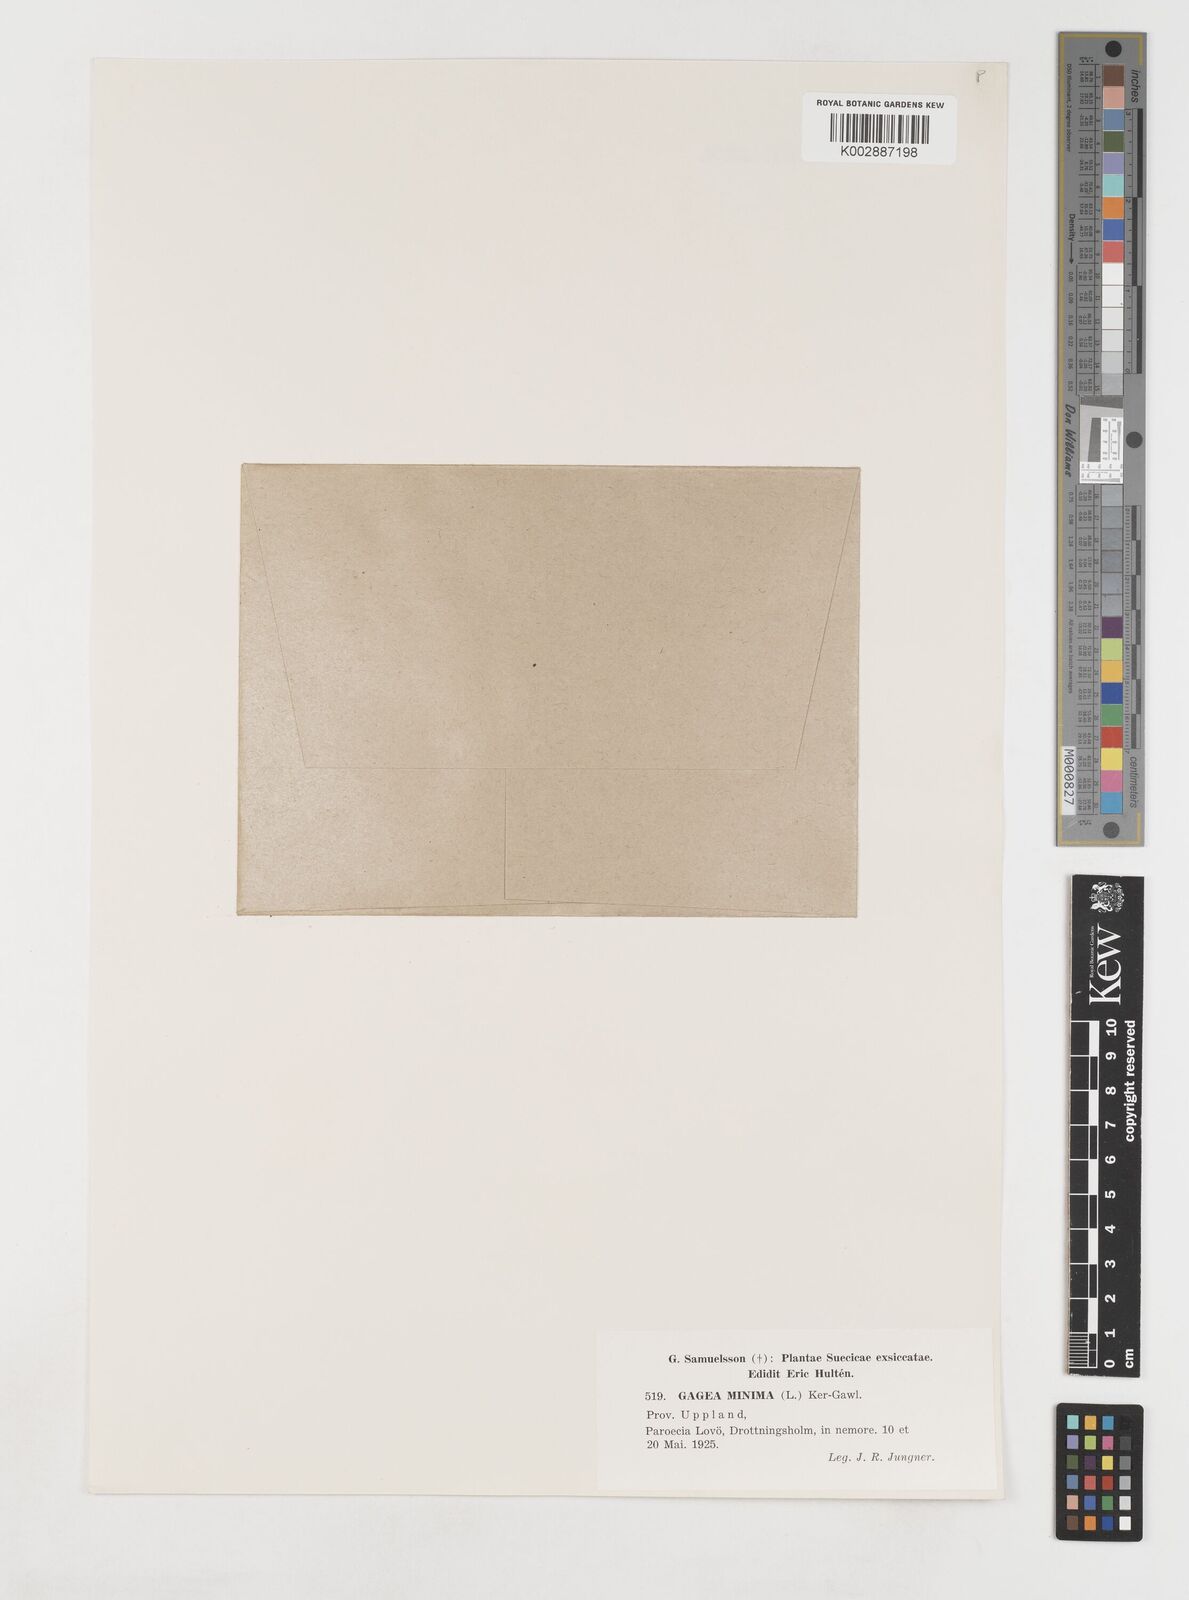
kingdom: Plantae
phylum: Tracheophyta
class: Liliopsida
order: Liliales
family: Liliaceae
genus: Gagea
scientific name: Gagea minima
